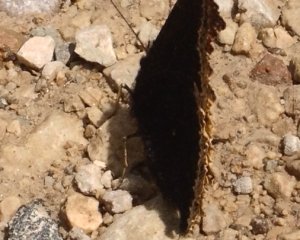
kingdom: Animalia
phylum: Arthropoda
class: Insecta
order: Lepidoptera
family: Nymphalidae
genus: Nymphalis
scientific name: Nymphalis antiopa
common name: Mourning Cloak
